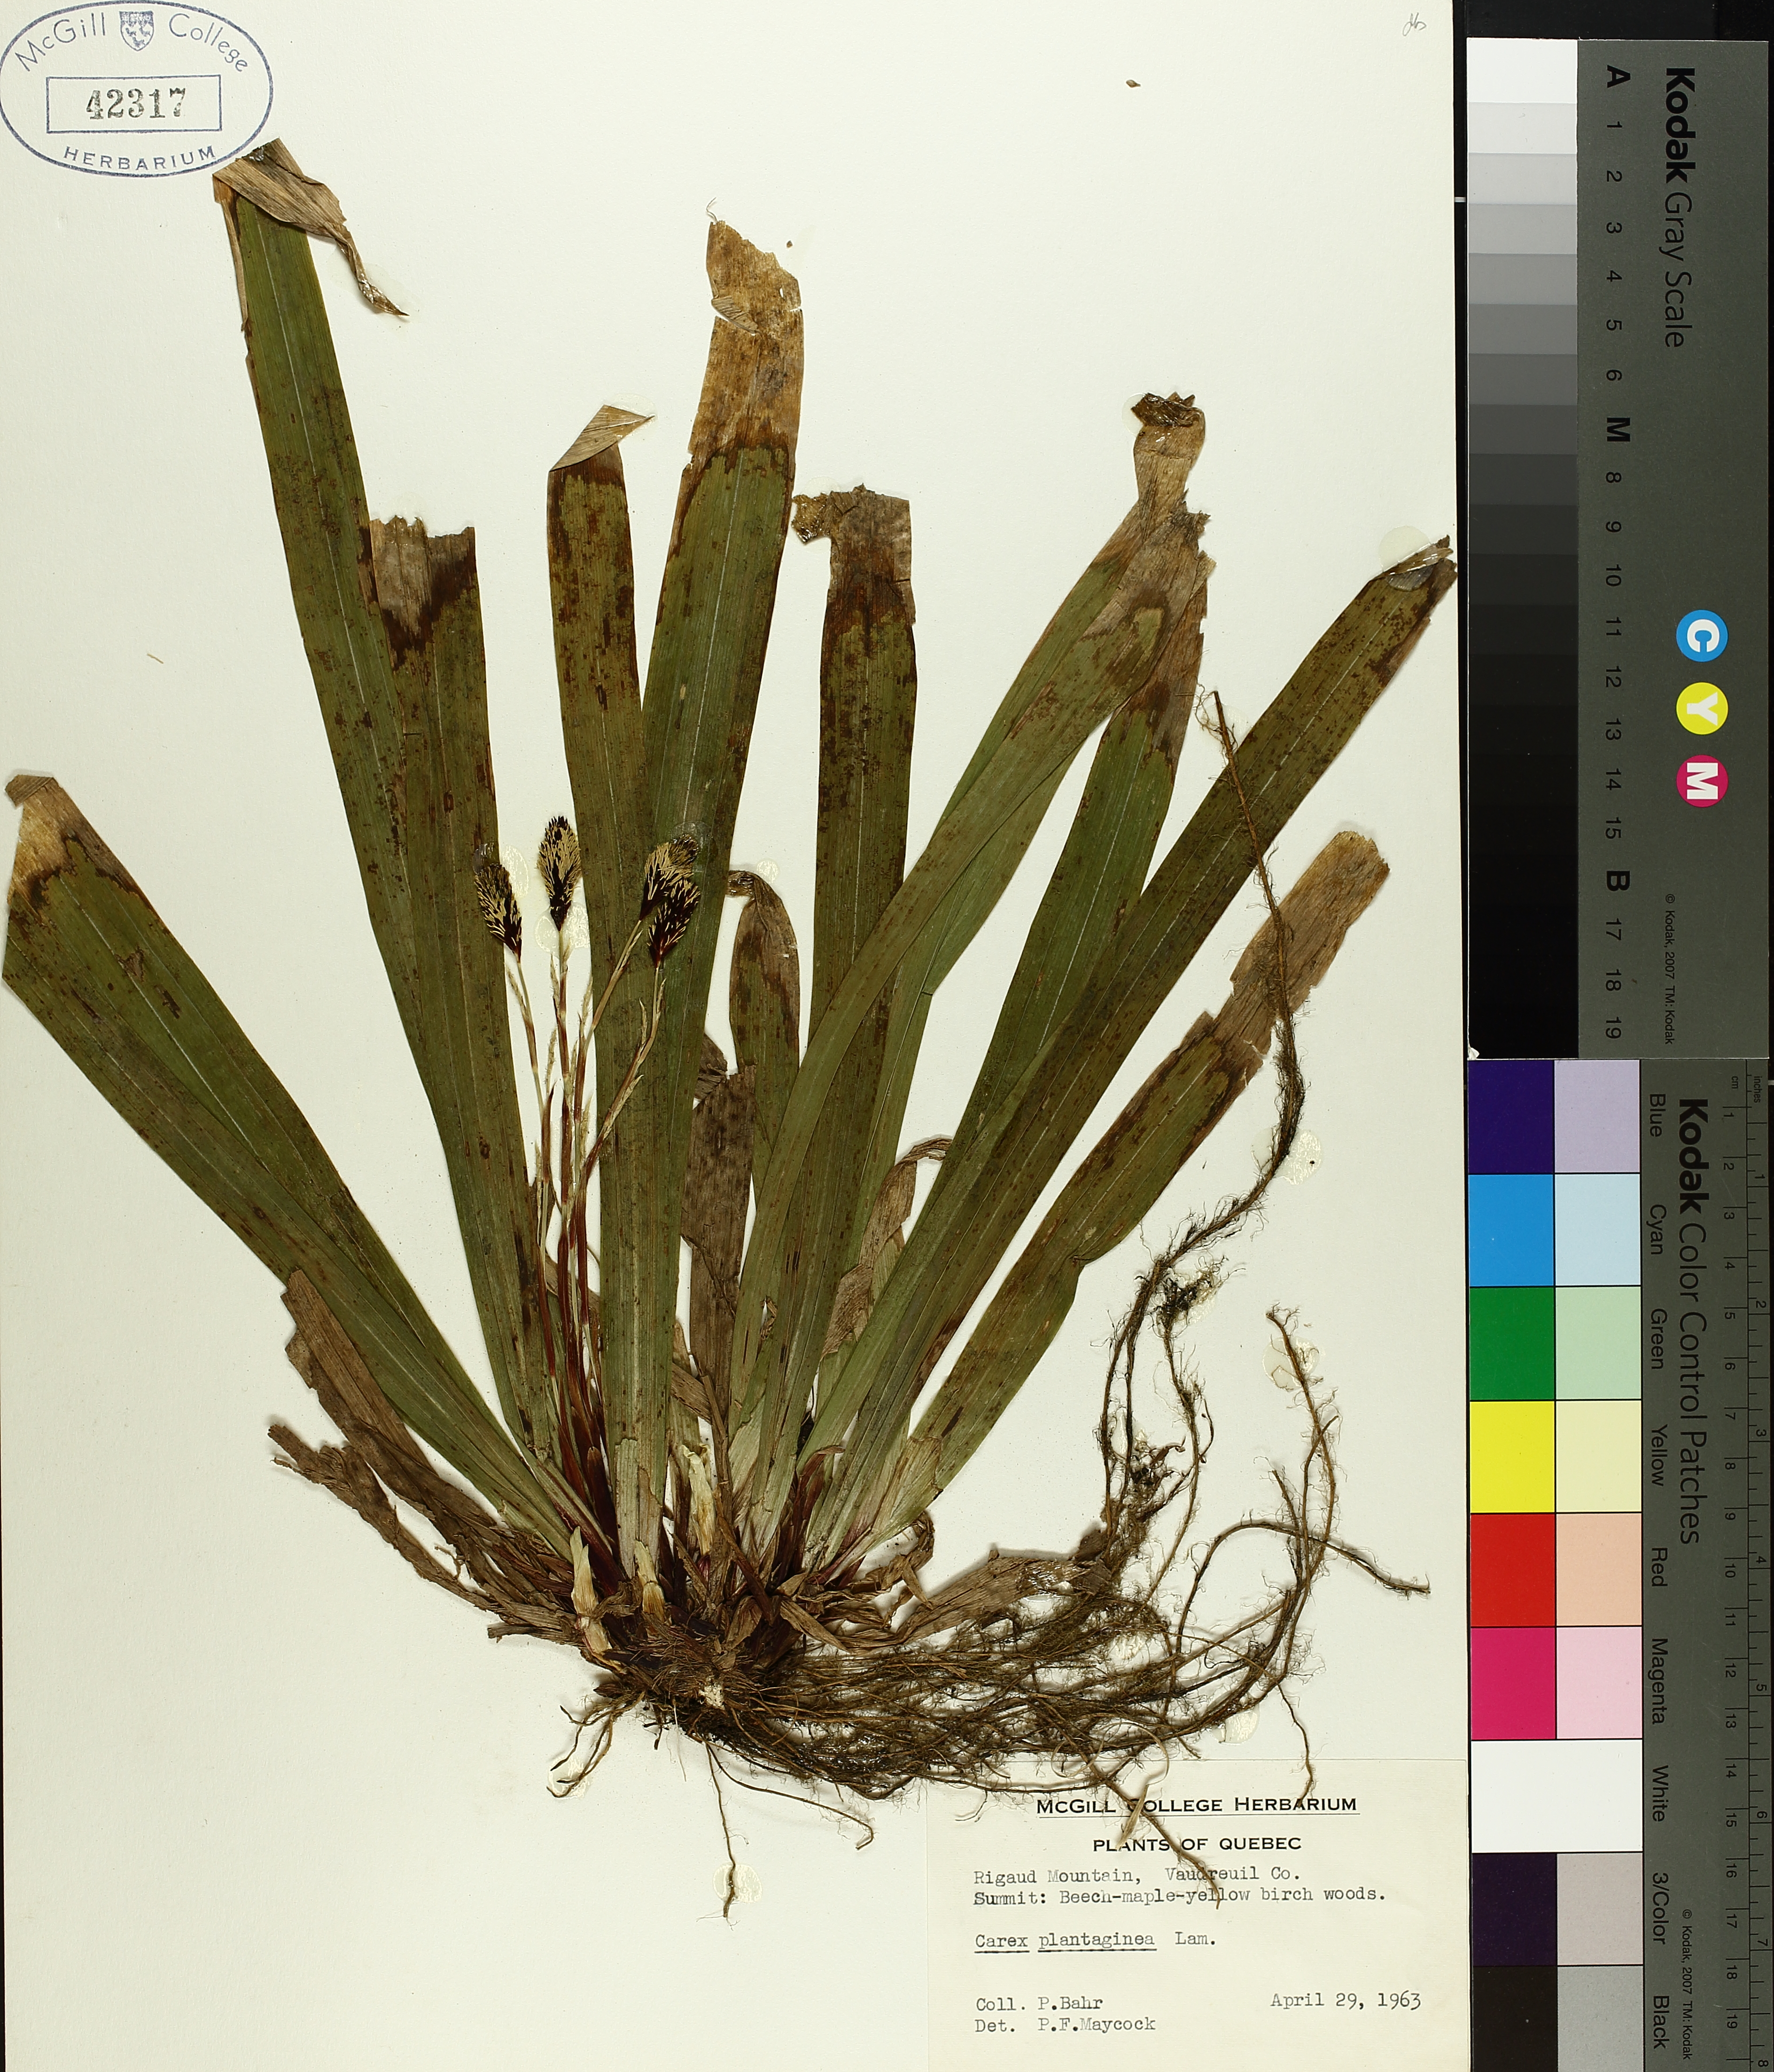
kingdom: Plantae
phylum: Tracheophyta
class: Liliopsida
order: Poales
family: Cyperaceae
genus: Carex
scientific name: Carex plantaginea
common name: Plantain-leaved sedge
